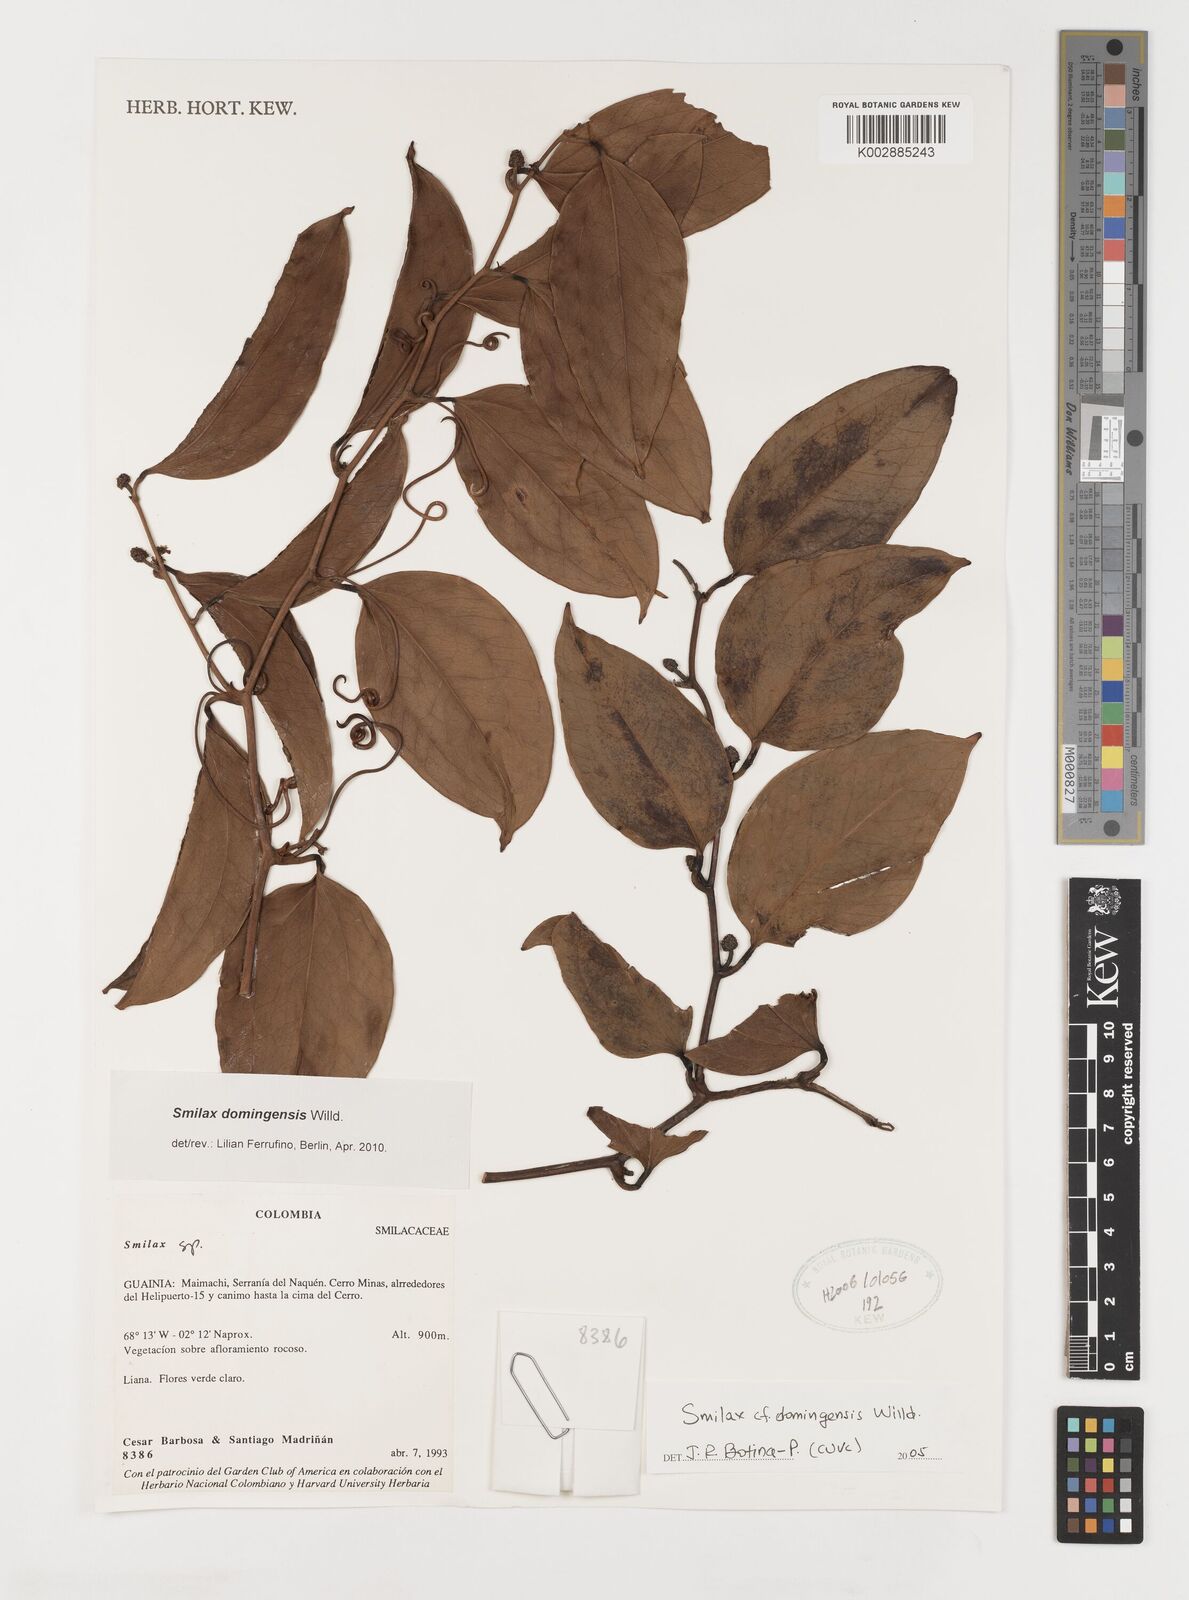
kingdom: Plantae
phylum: Tracheophyta
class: Liliopsida
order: Liliales
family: Smilacaceae
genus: Smilax
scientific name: Smilax domingensis
